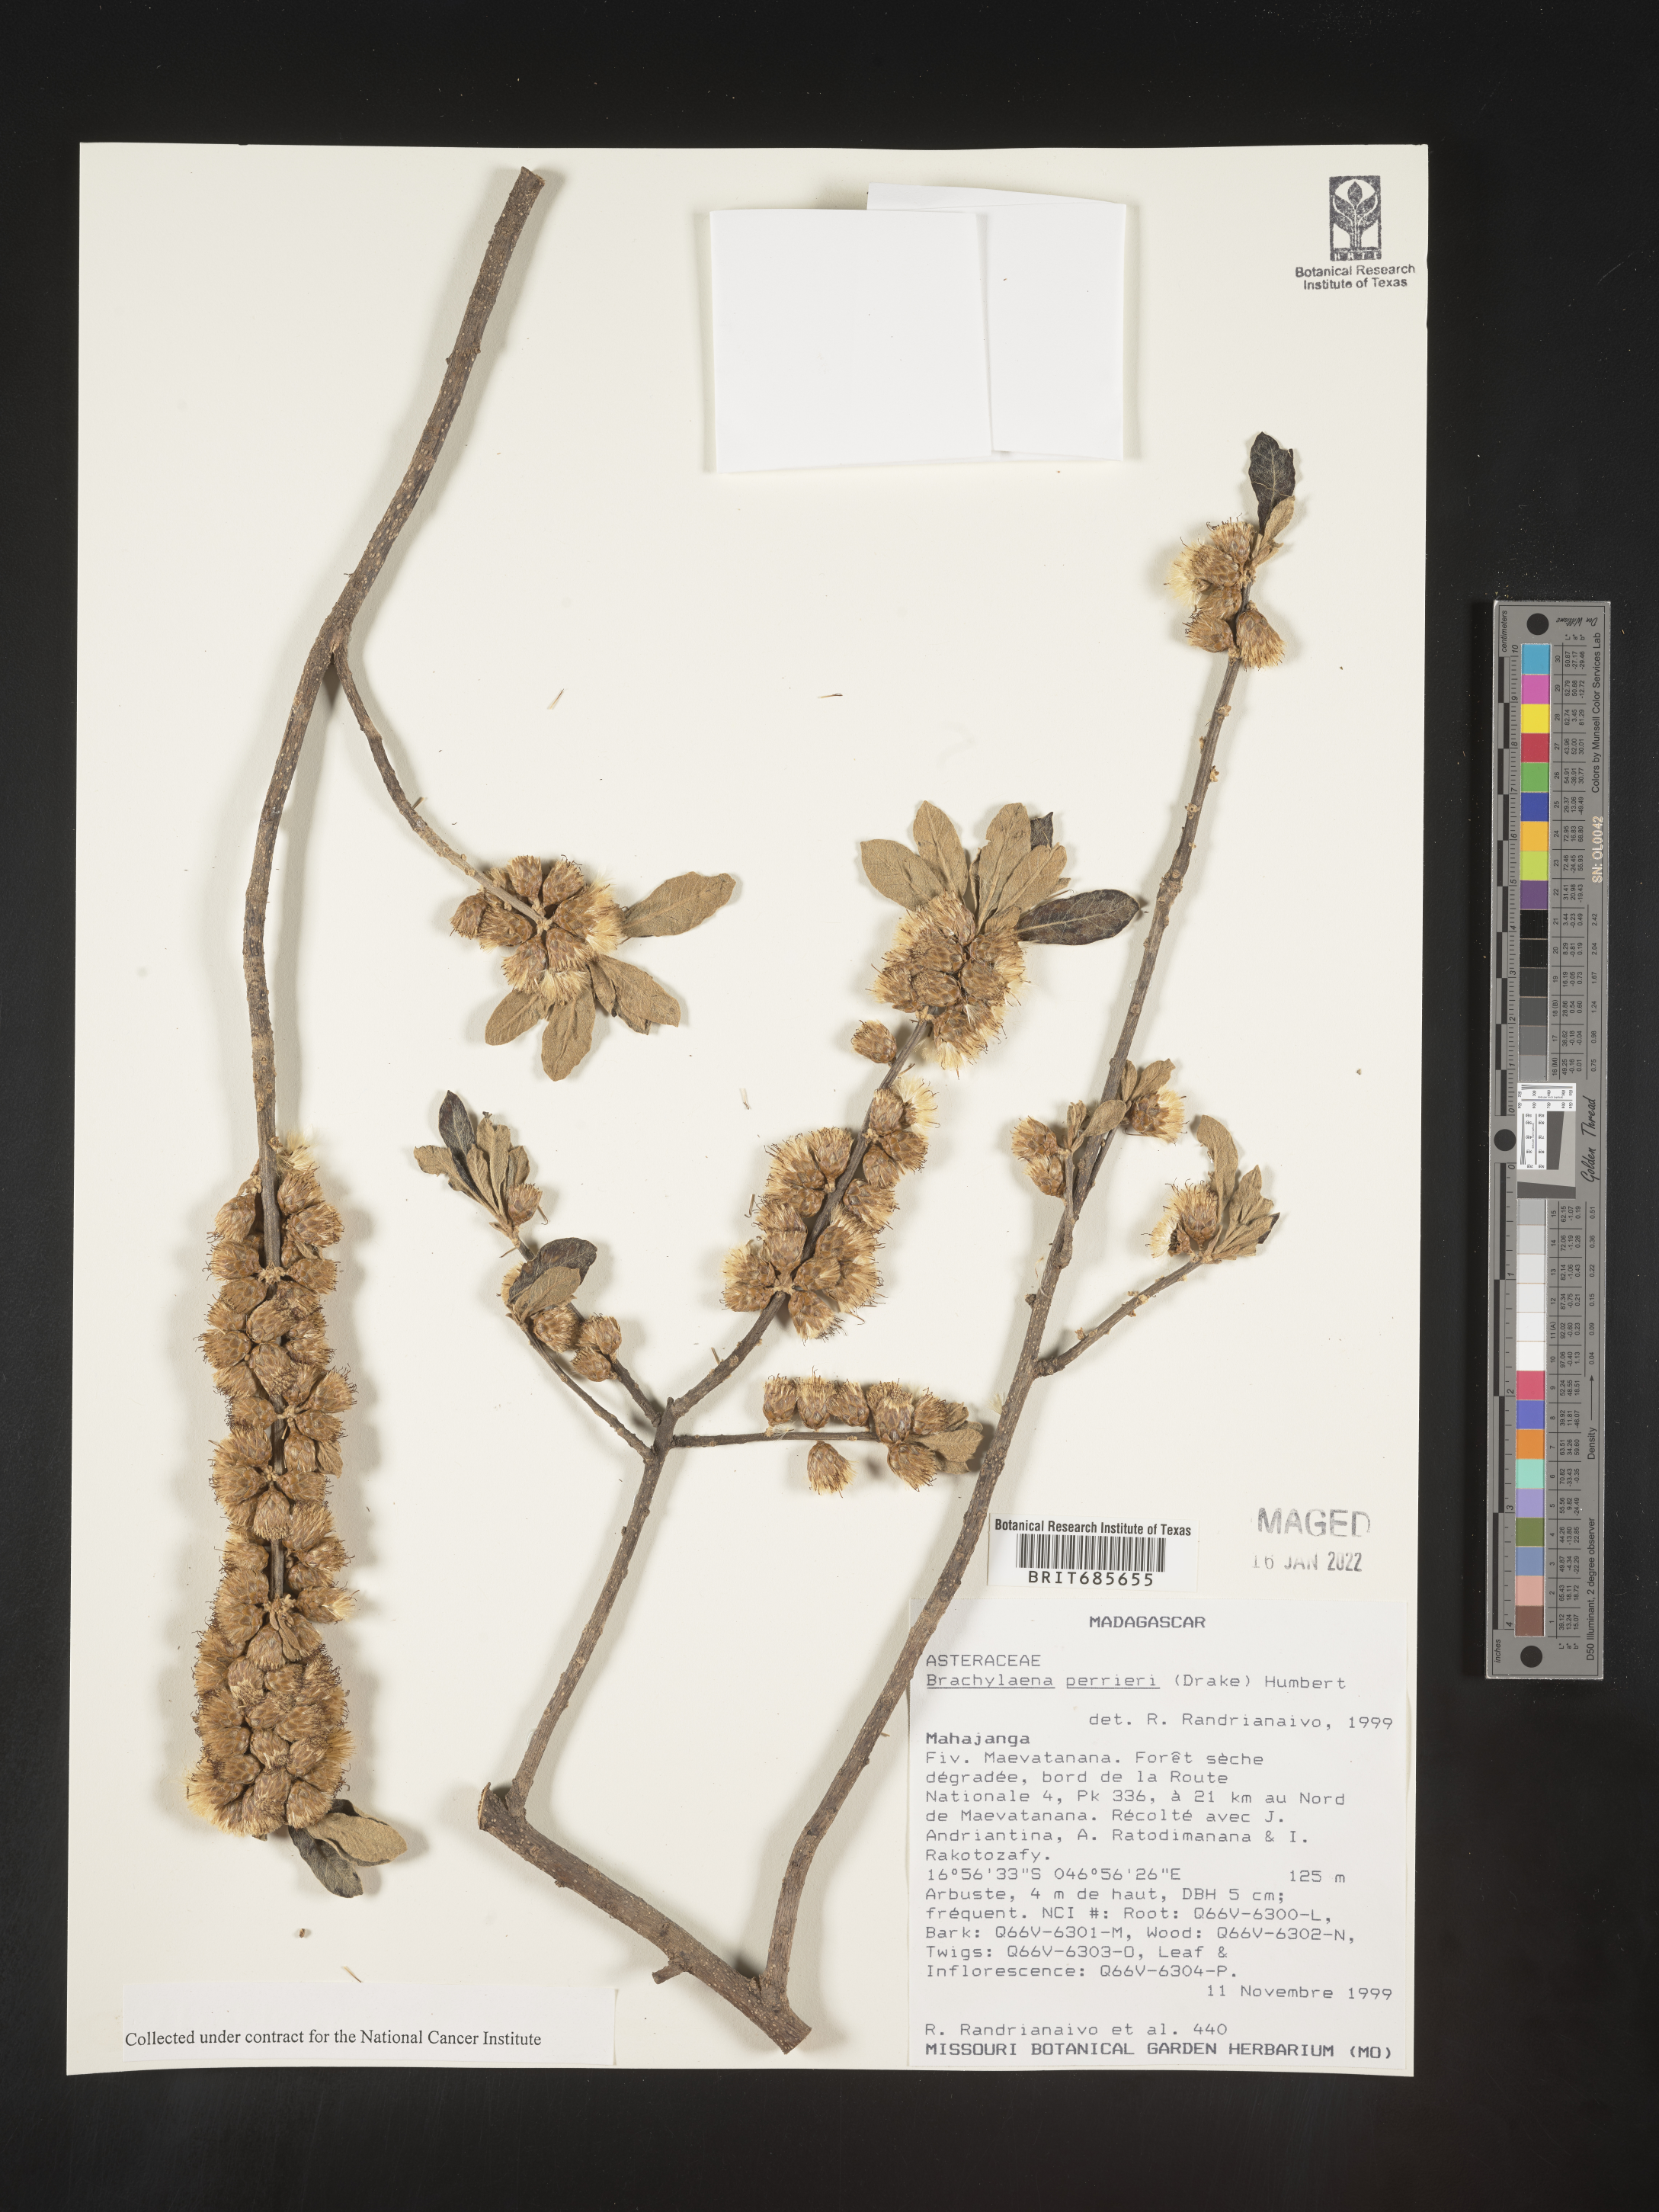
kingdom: Plantae
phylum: Tracheophyta
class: Magnoliopsida
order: Asterales
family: Asteraceae
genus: Brachylaena
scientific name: Brachylaena
